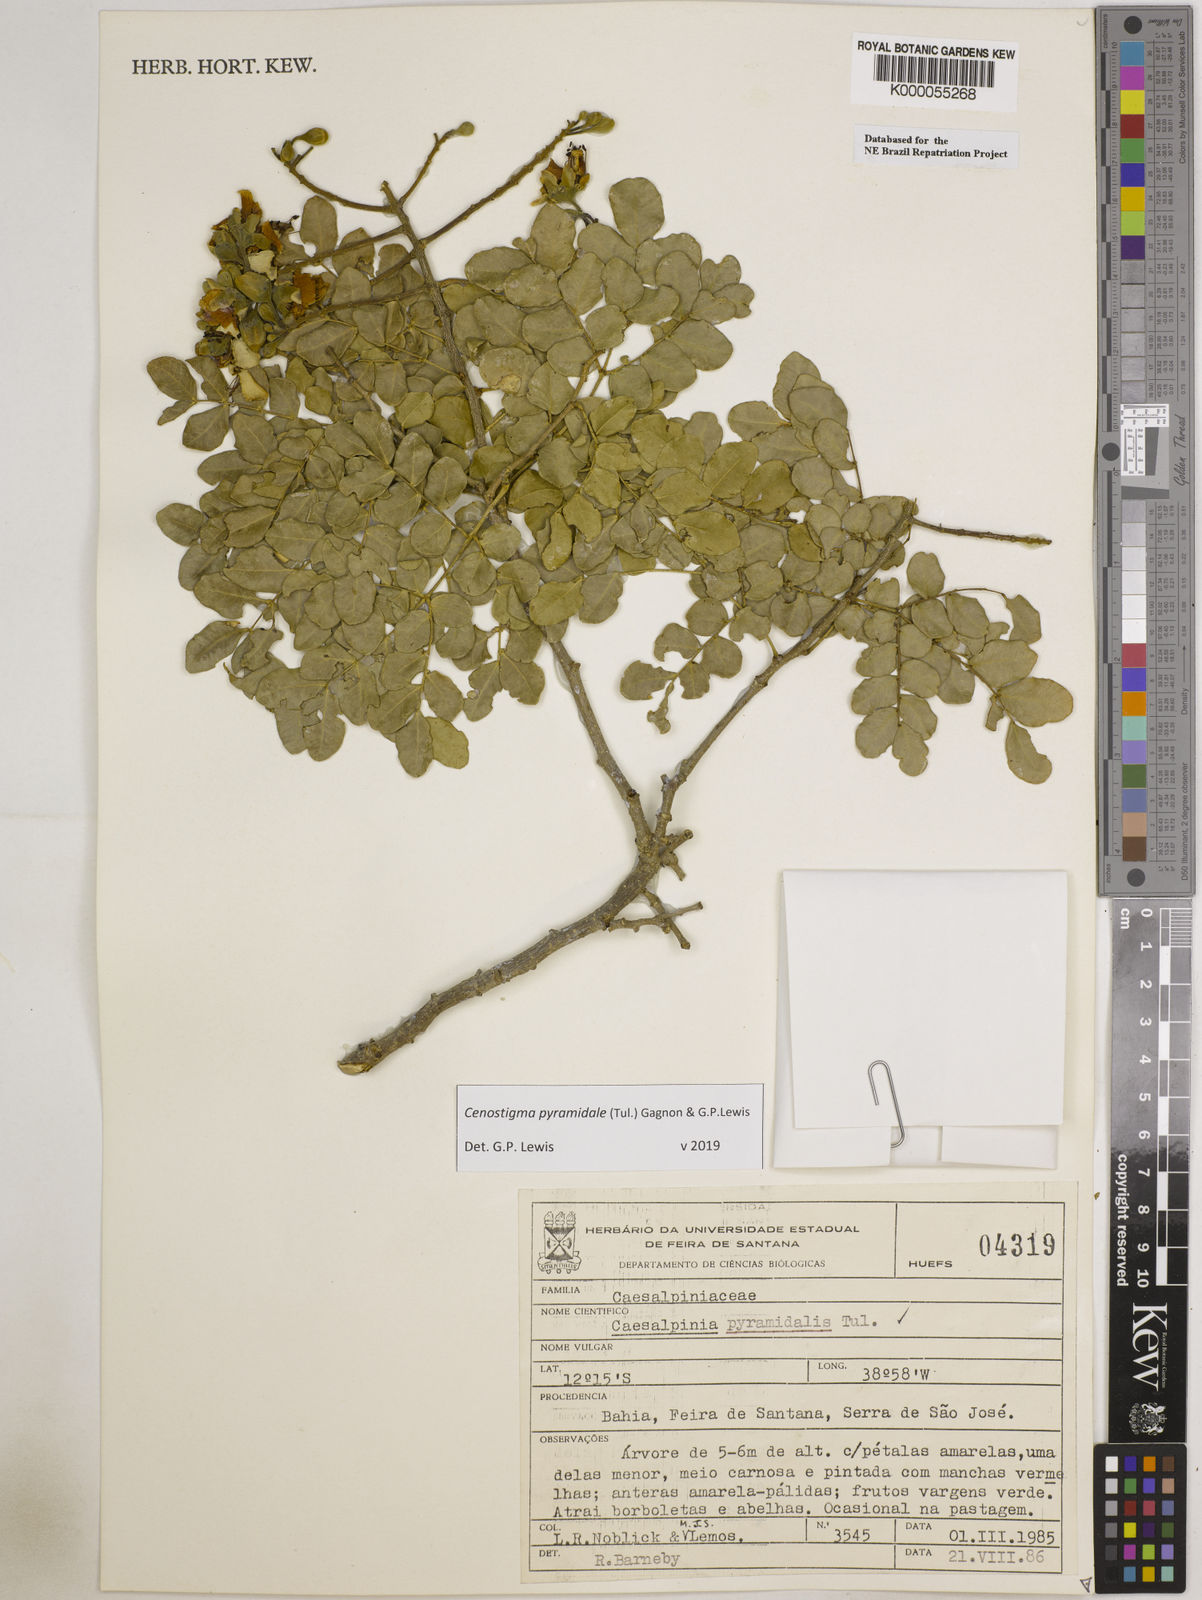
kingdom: Plantae
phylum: Tracheophyta
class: Magnoliopsida
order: Fabales
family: Fabaceae
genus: Cenostigma
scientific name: Cenostigma pyramidale
